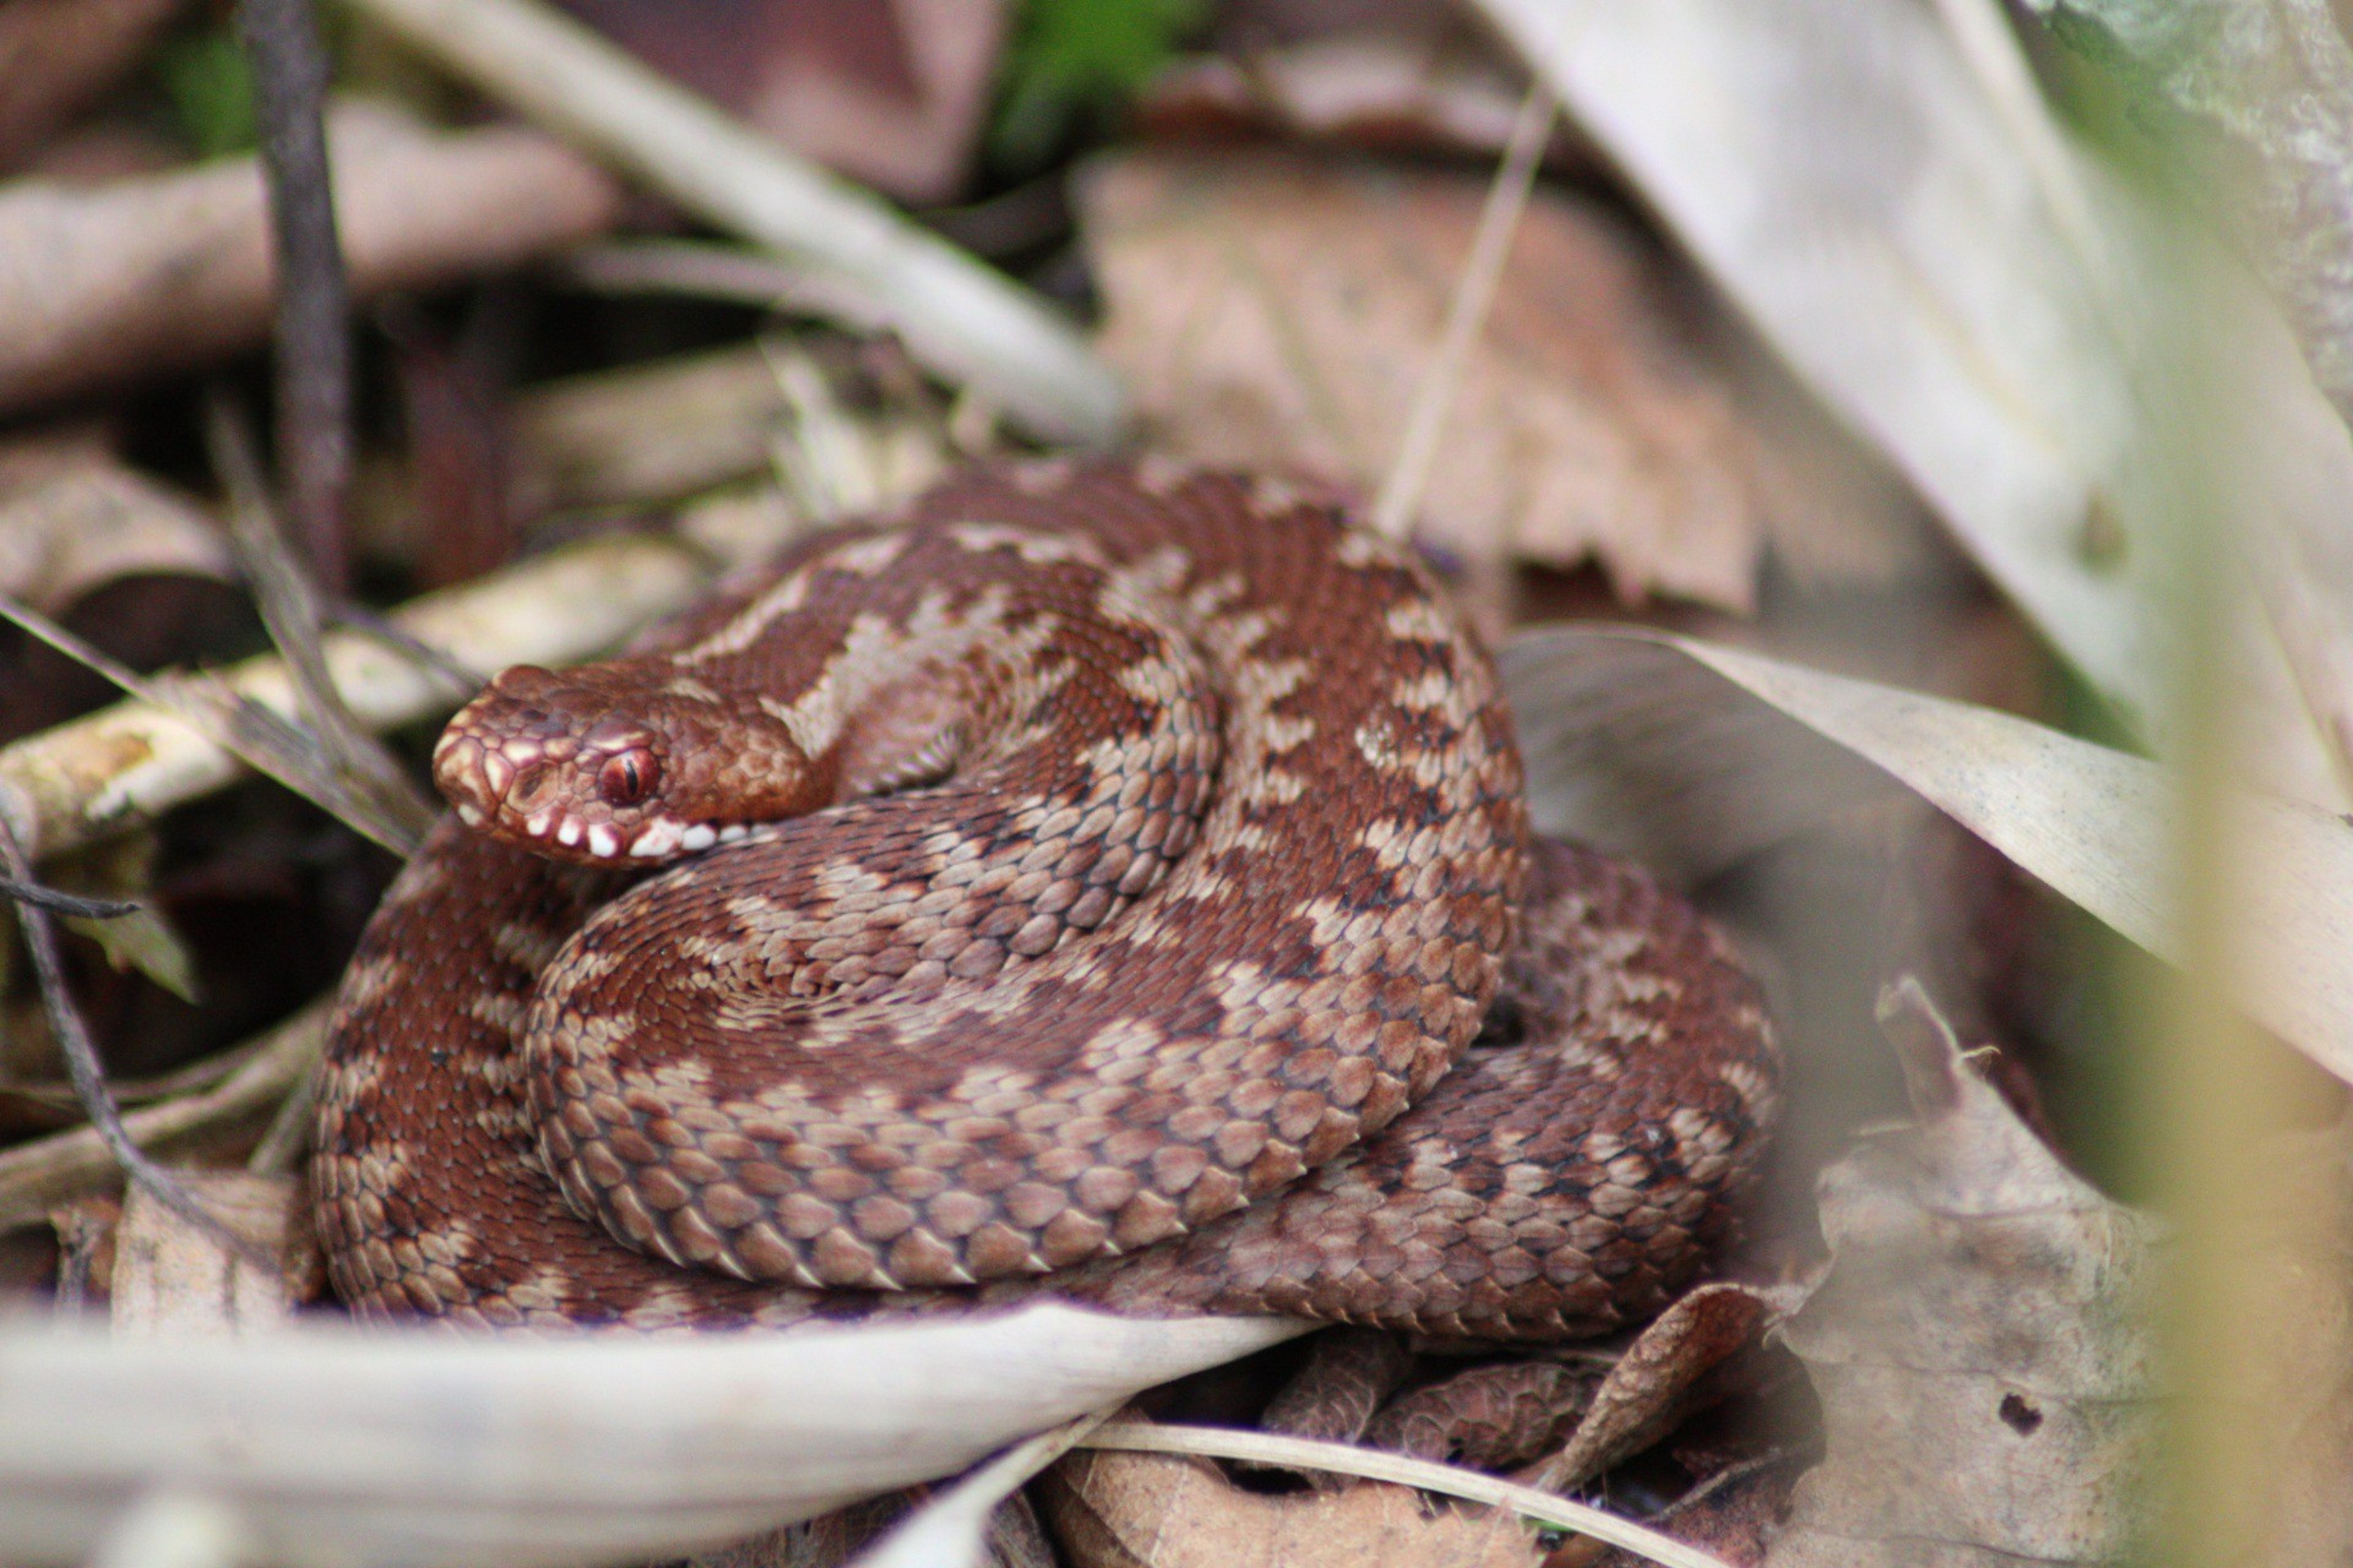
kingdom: Animalia
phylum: Chordata
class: Squamata
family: Viperidae
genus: Vipera
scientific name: Vipera berus
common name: Hugorm
